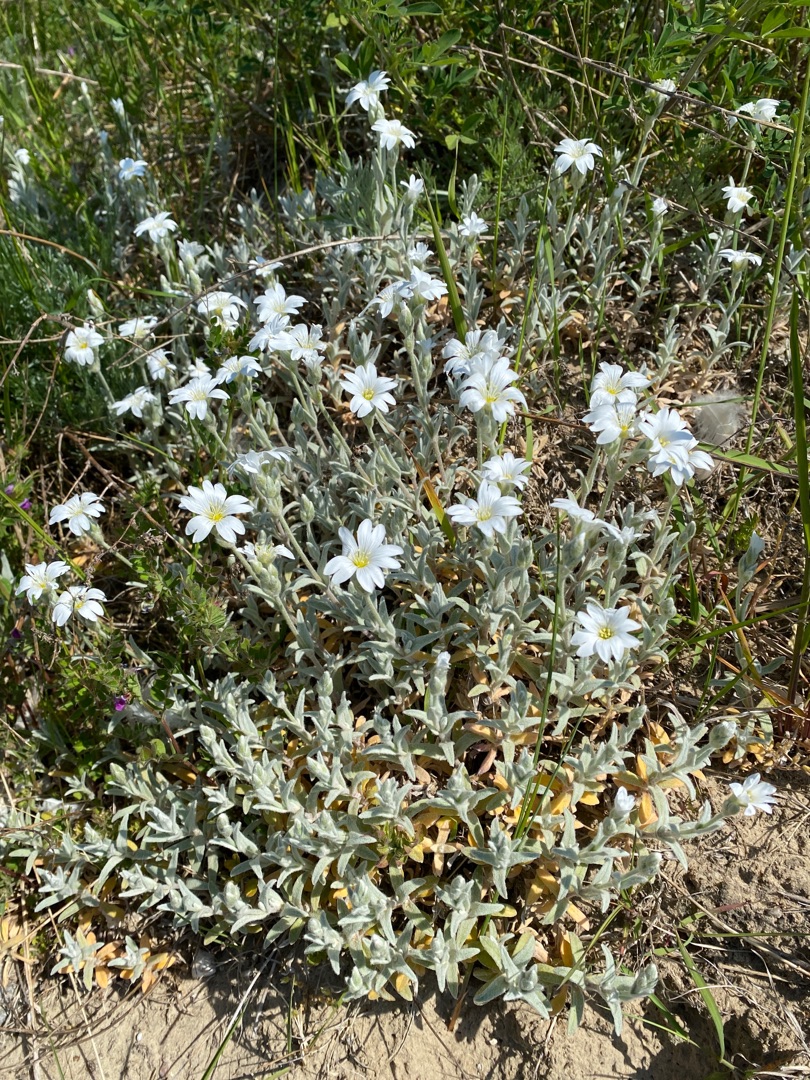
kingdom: Plantae
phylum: Tracheophyta
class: Magnoliopsida
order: Caryophyllales
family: Caryophyllaceae
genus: Cerastium
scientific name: Cerastium tomentosum
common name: Filtet hønsetarm
